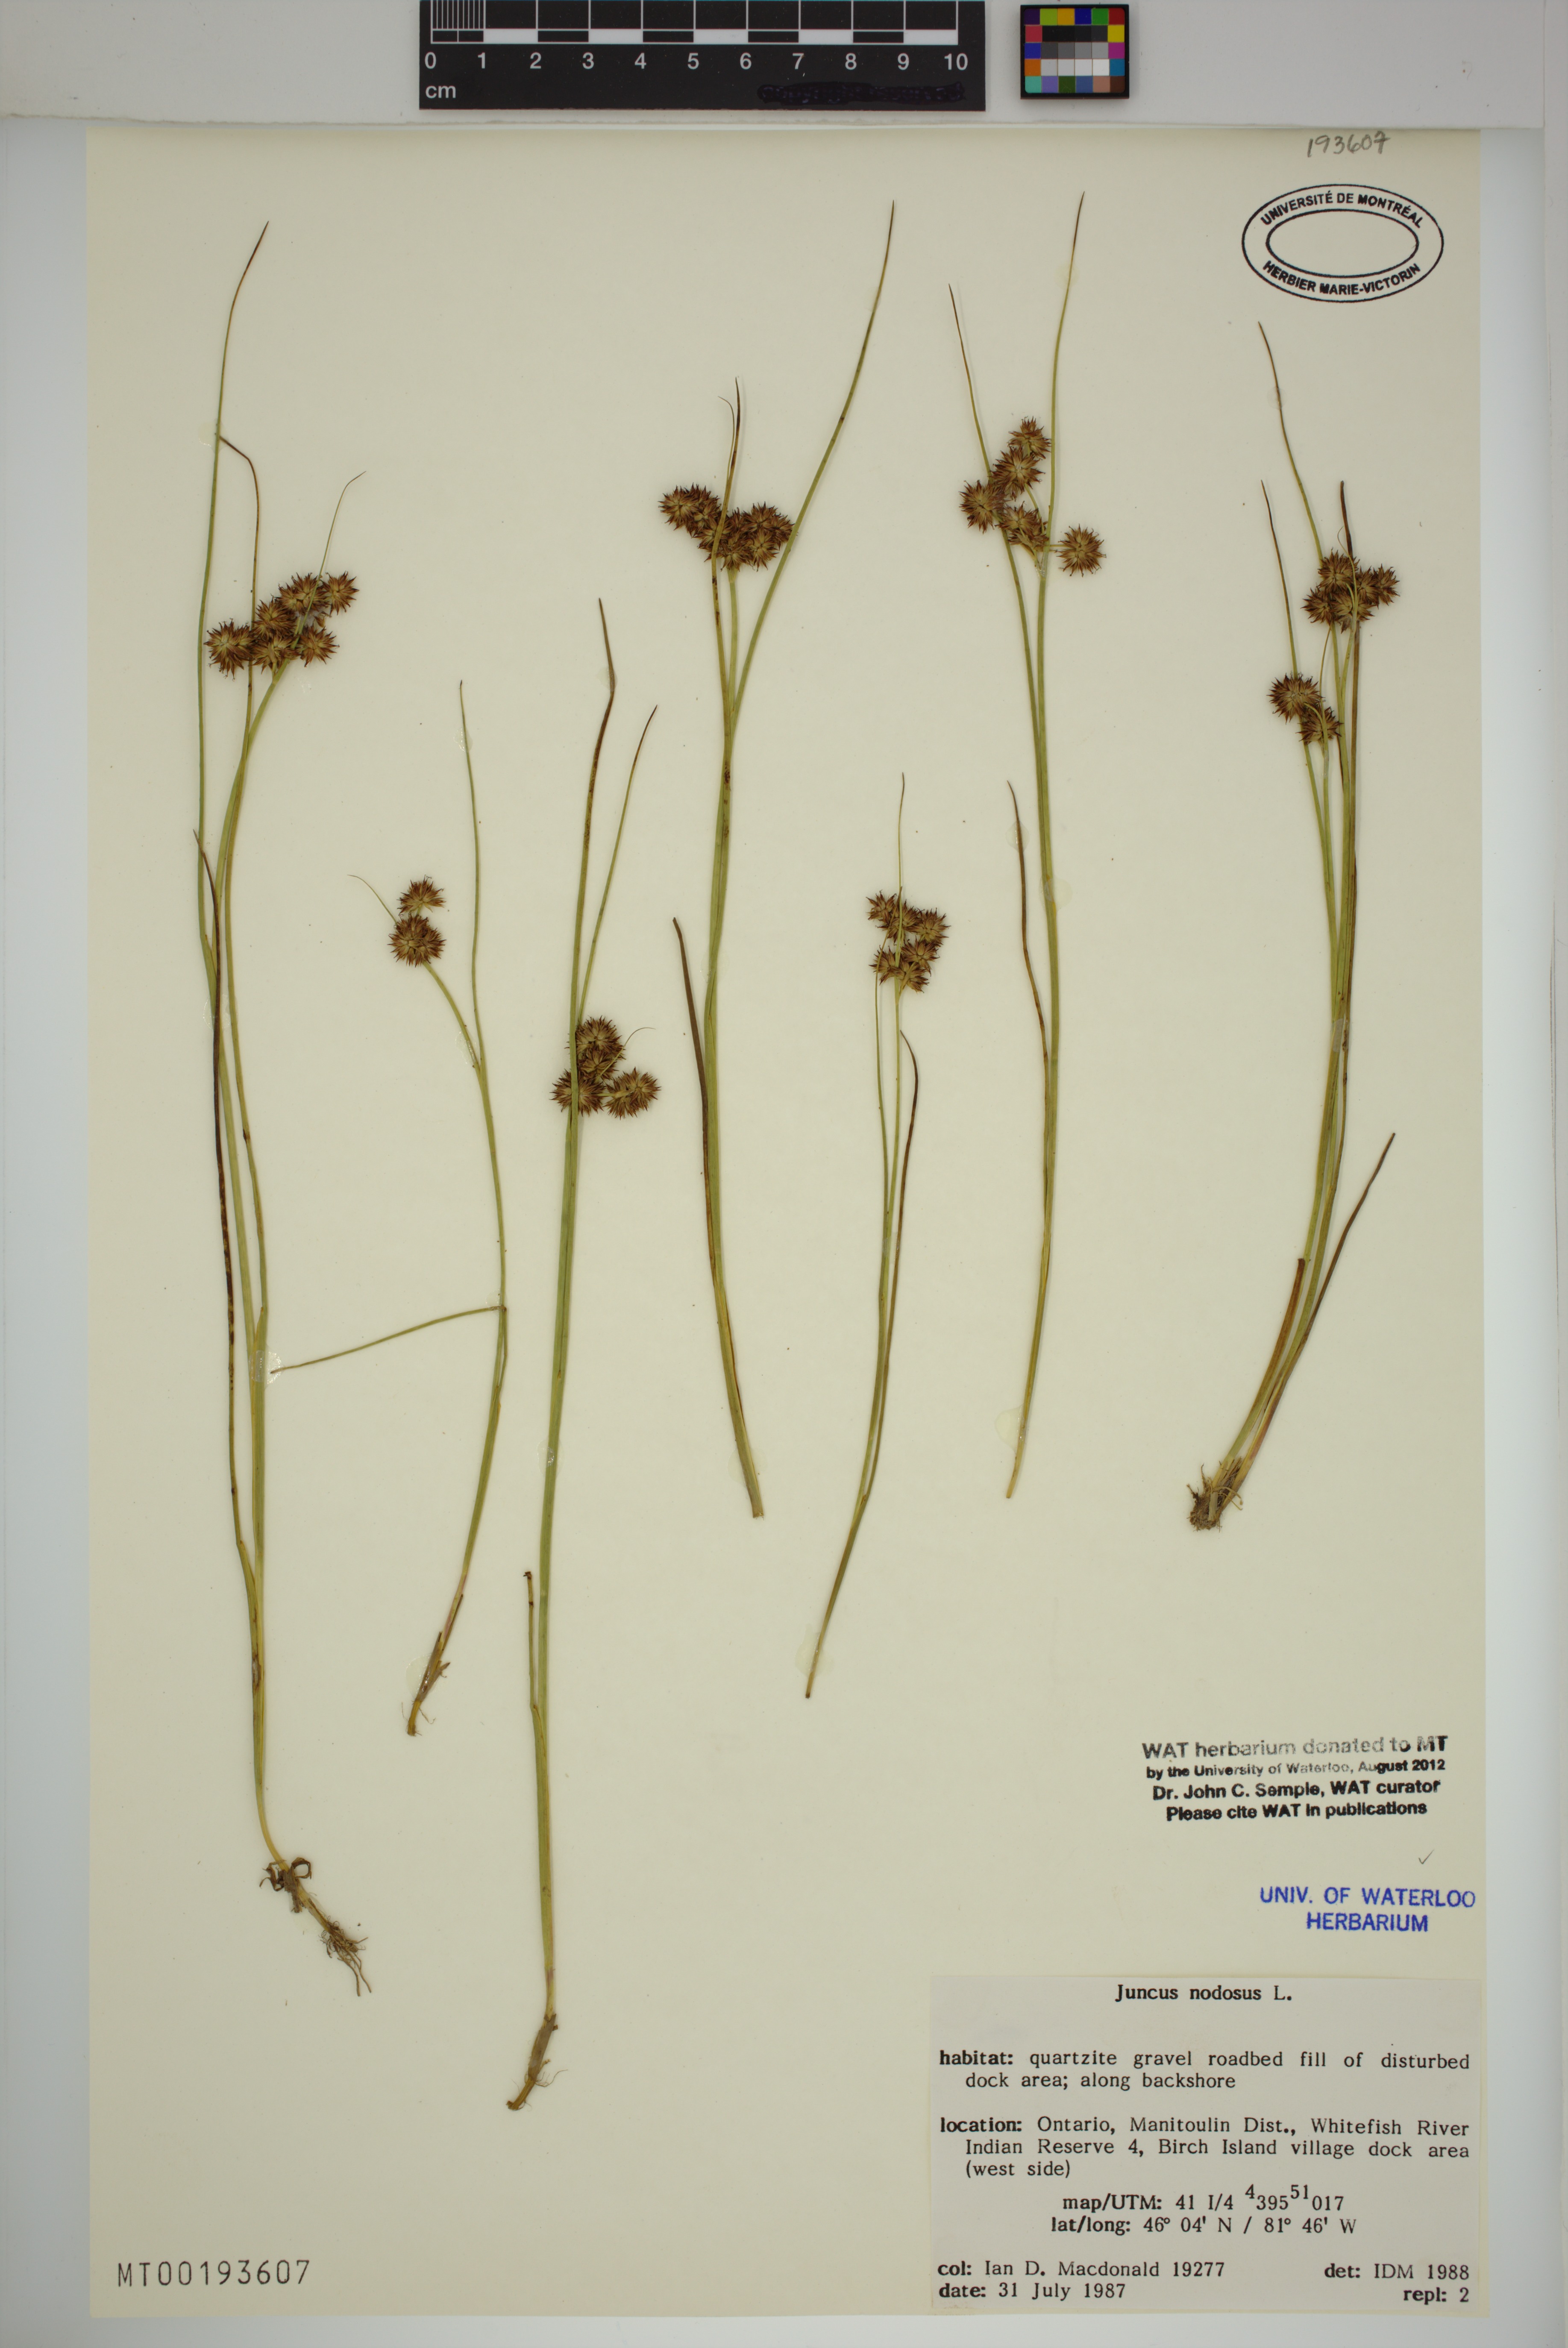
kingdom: Plantae
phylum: Tracheophyta
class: Liliopsida
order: Poales
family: Juncaceae
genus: Juncus
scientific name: Juncus nodosus
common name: Knotted rush
